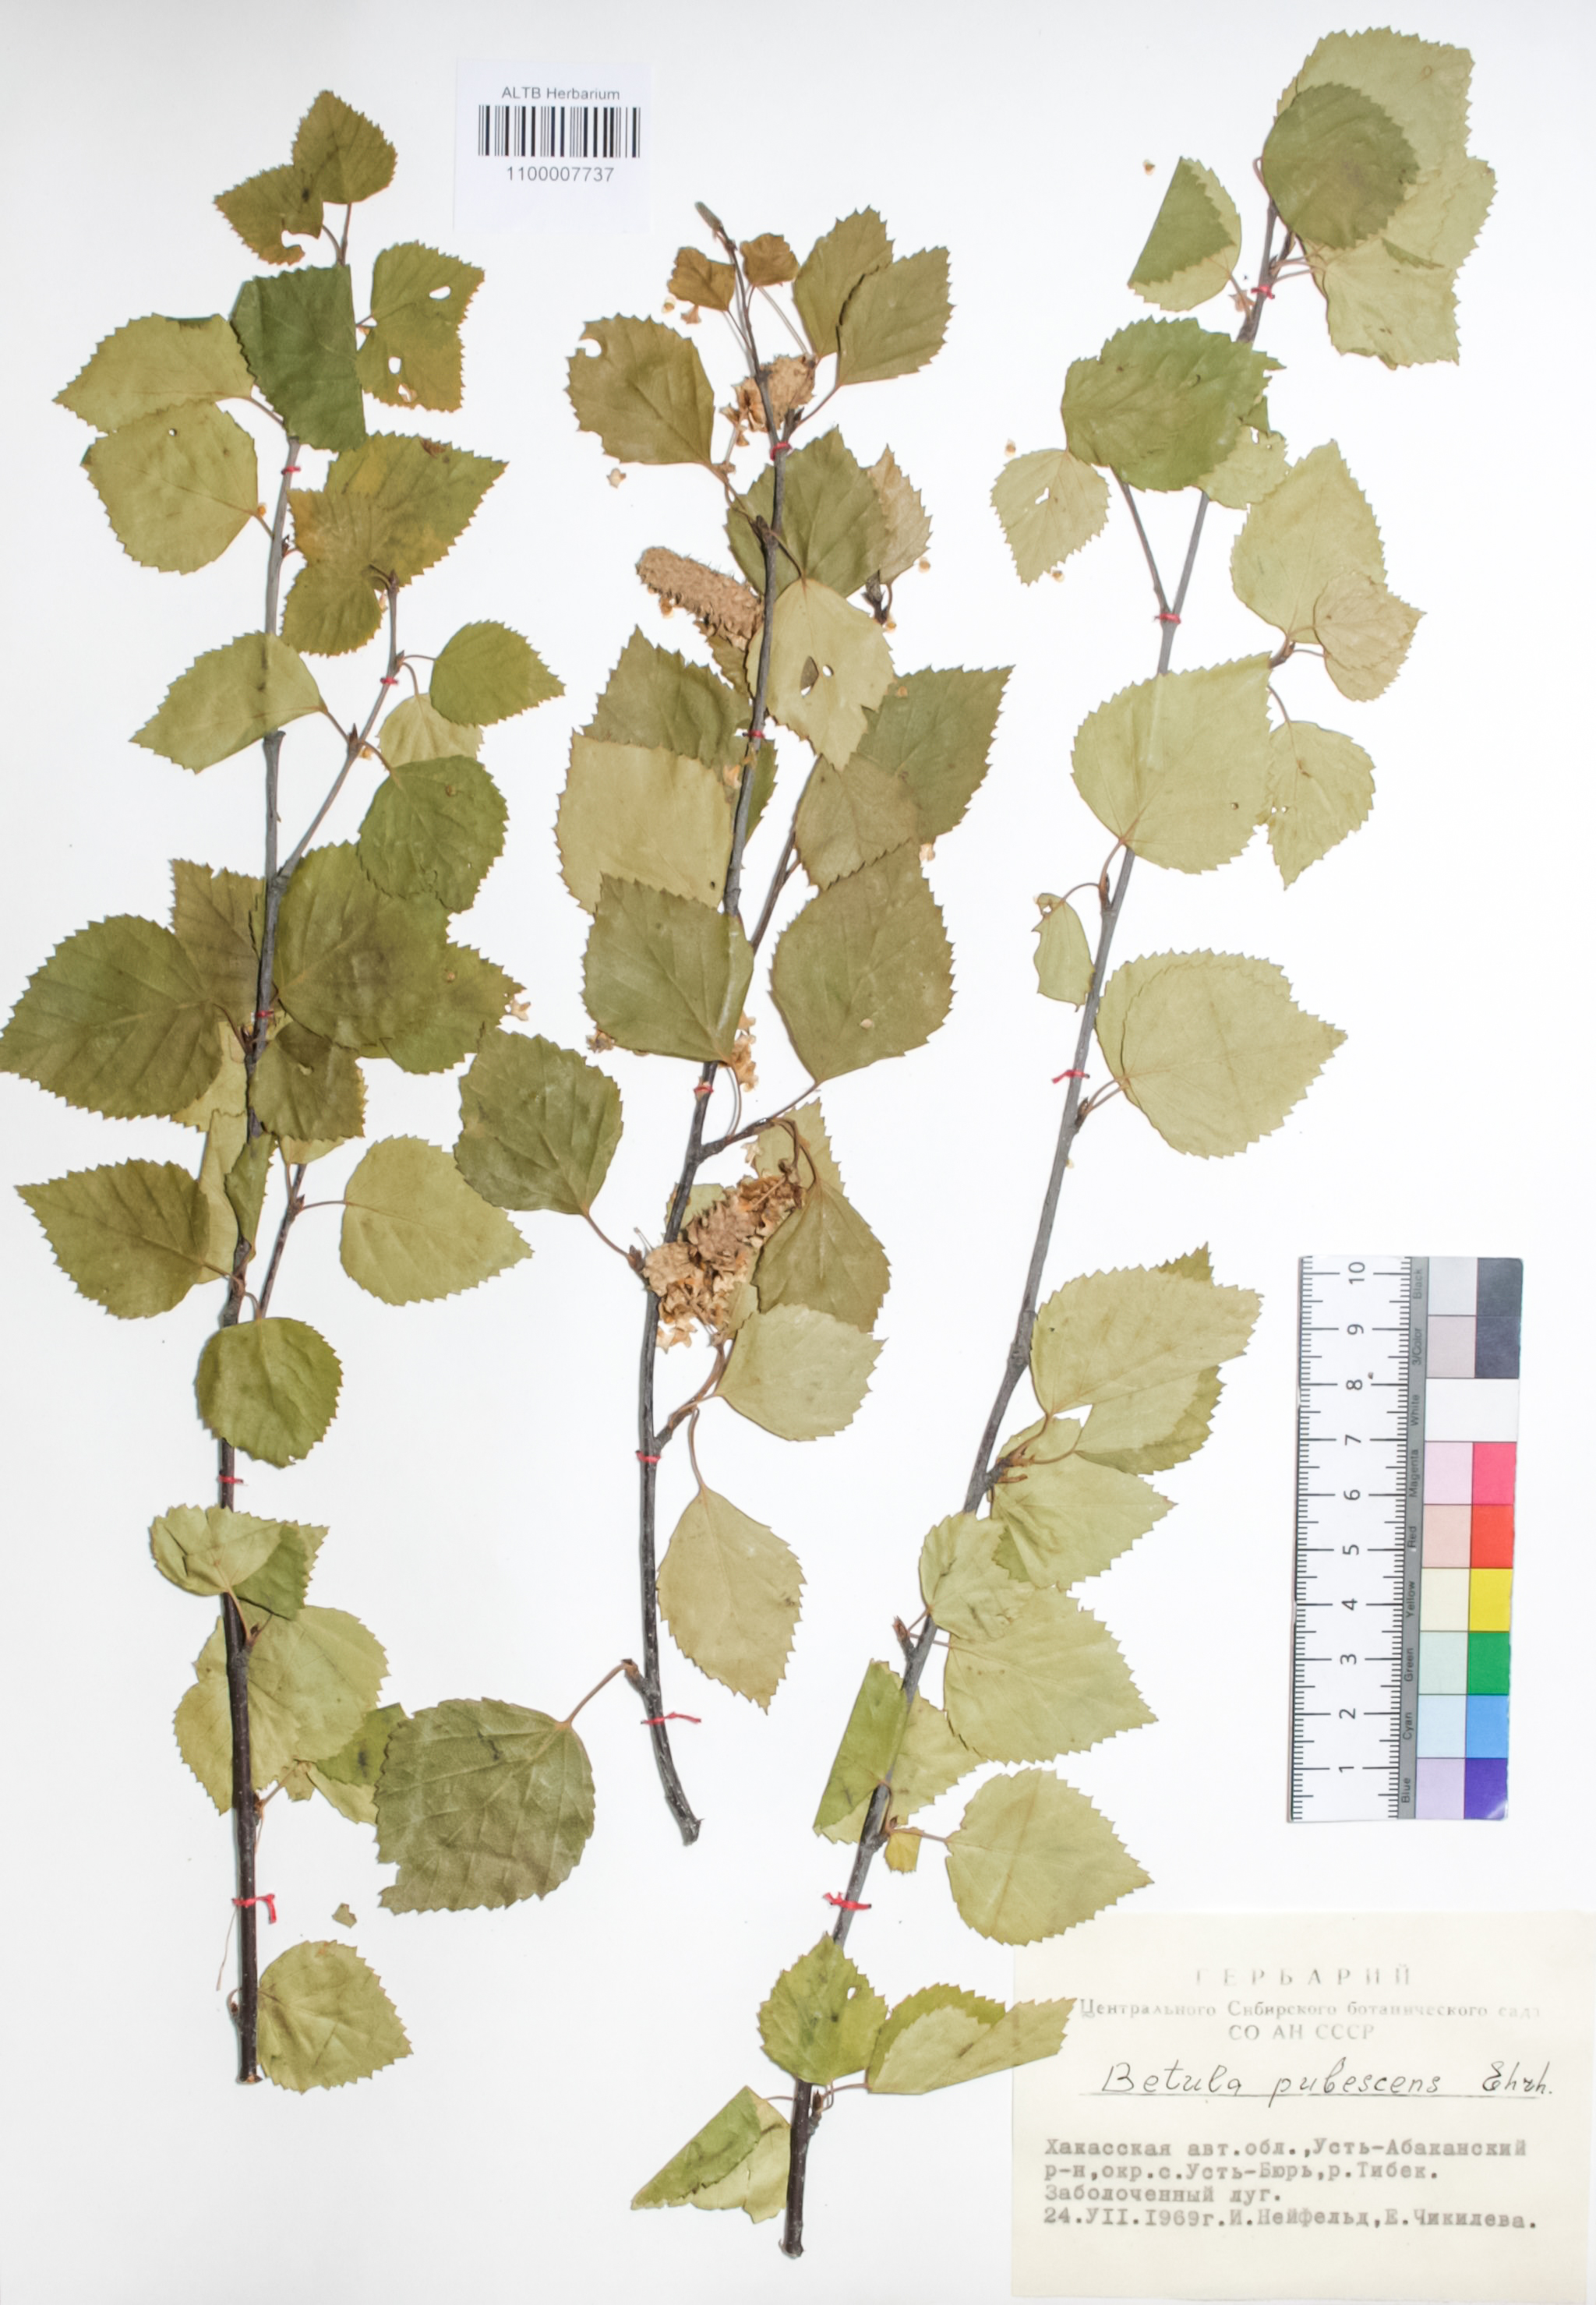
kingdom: Plantae
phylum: Tracheophyta
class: Magnoliopsida
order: Fagales
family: Betulaceae
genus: Betula
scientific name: Betula pubescens
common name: Downy birch
